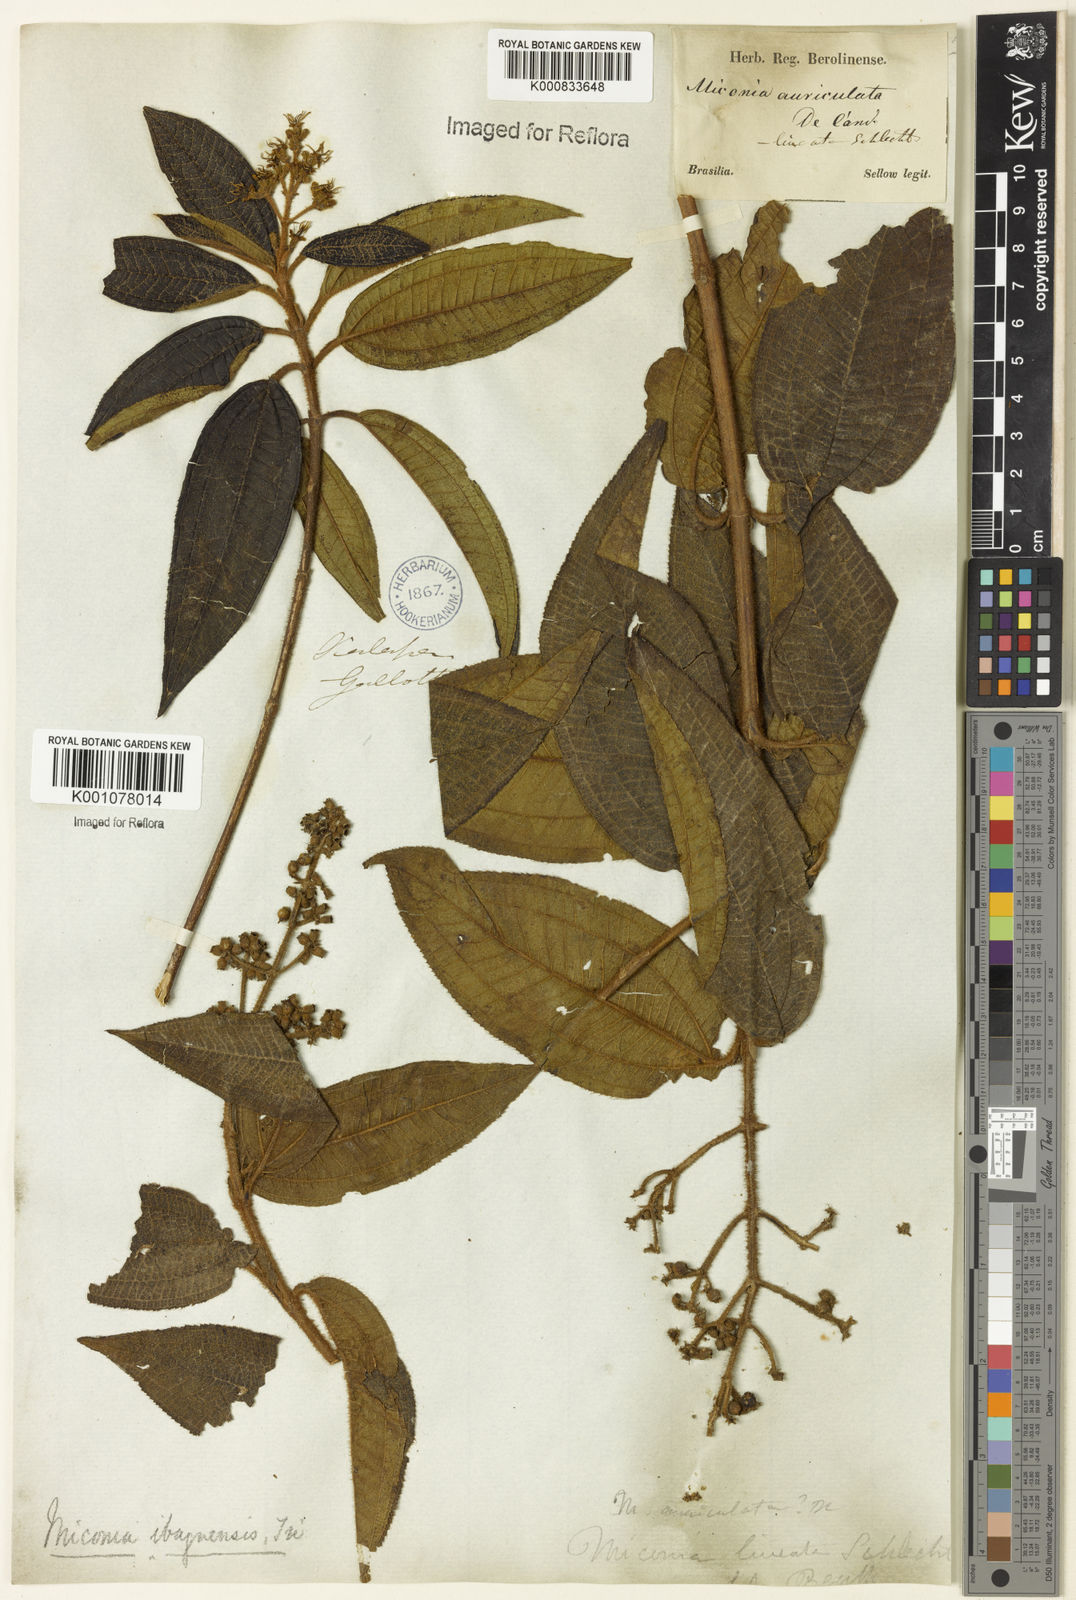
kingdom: Plantae
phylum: Tracheophyta
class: Magnoliopsida
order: Myrtales
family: Melastomataceae
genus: Miconia
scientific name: Miconia ibaguensis
